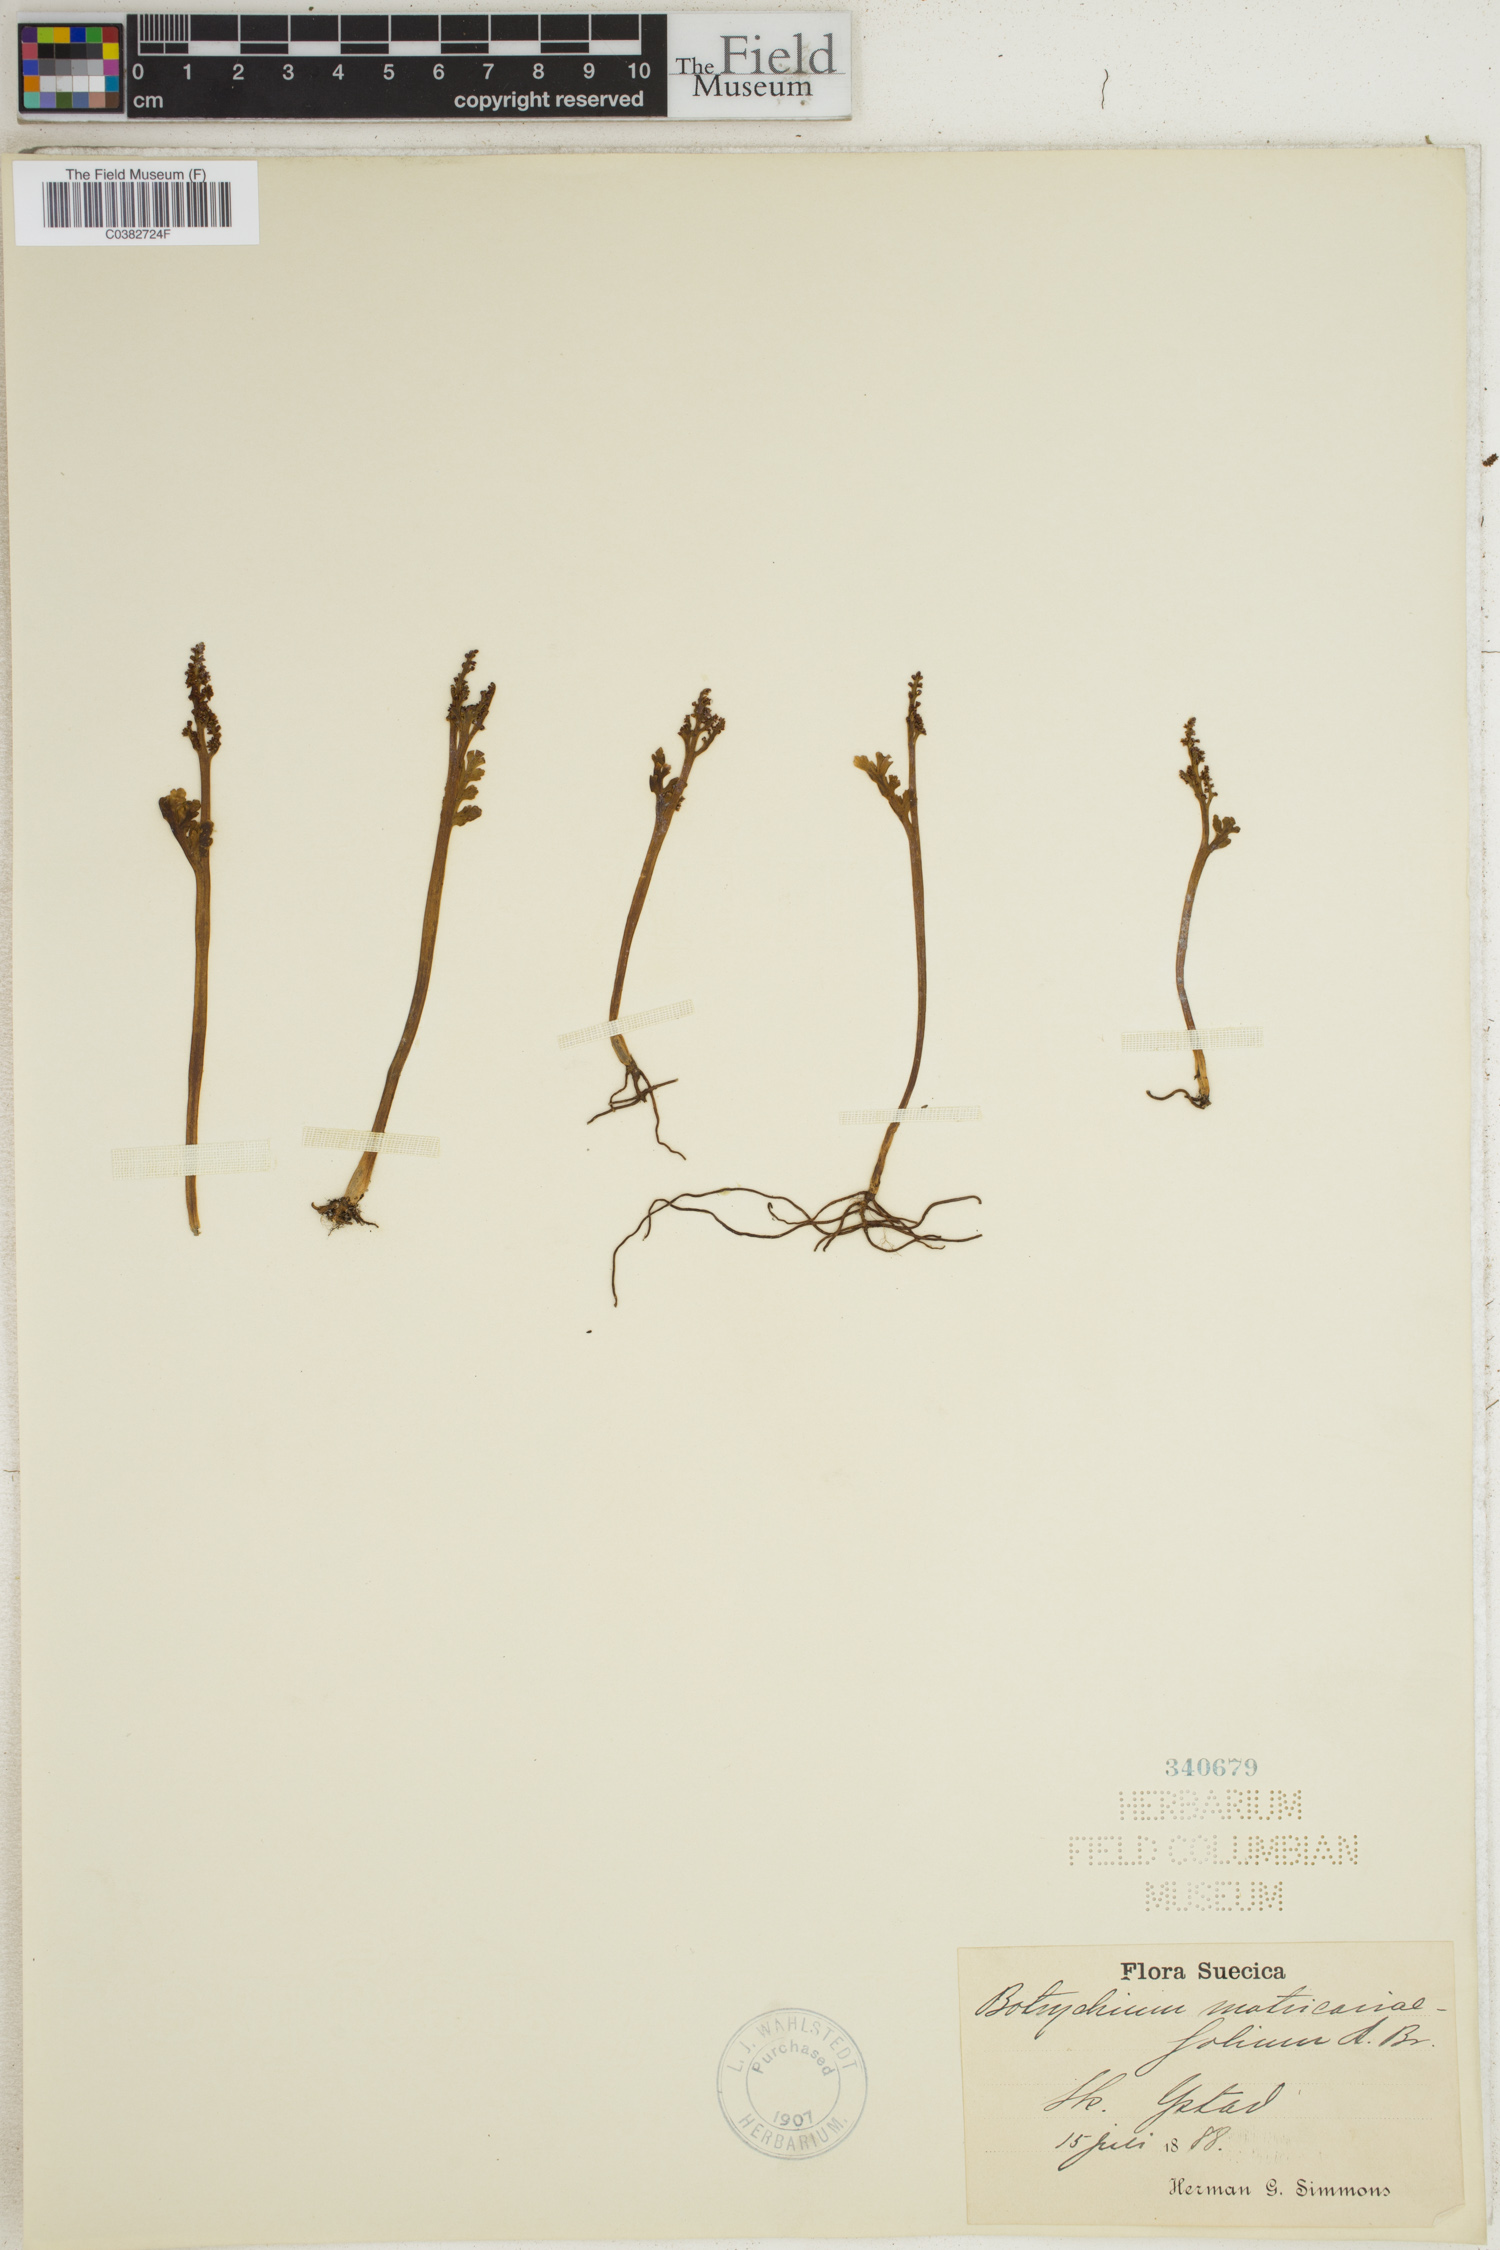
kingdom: Plantae
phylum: Tracheophyta
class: Polypodiopsida
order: Ophioglossales
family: Ophioglossaceae
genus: Botrychium
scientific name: Botrychium matricariifolium
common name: Branched moonwort
